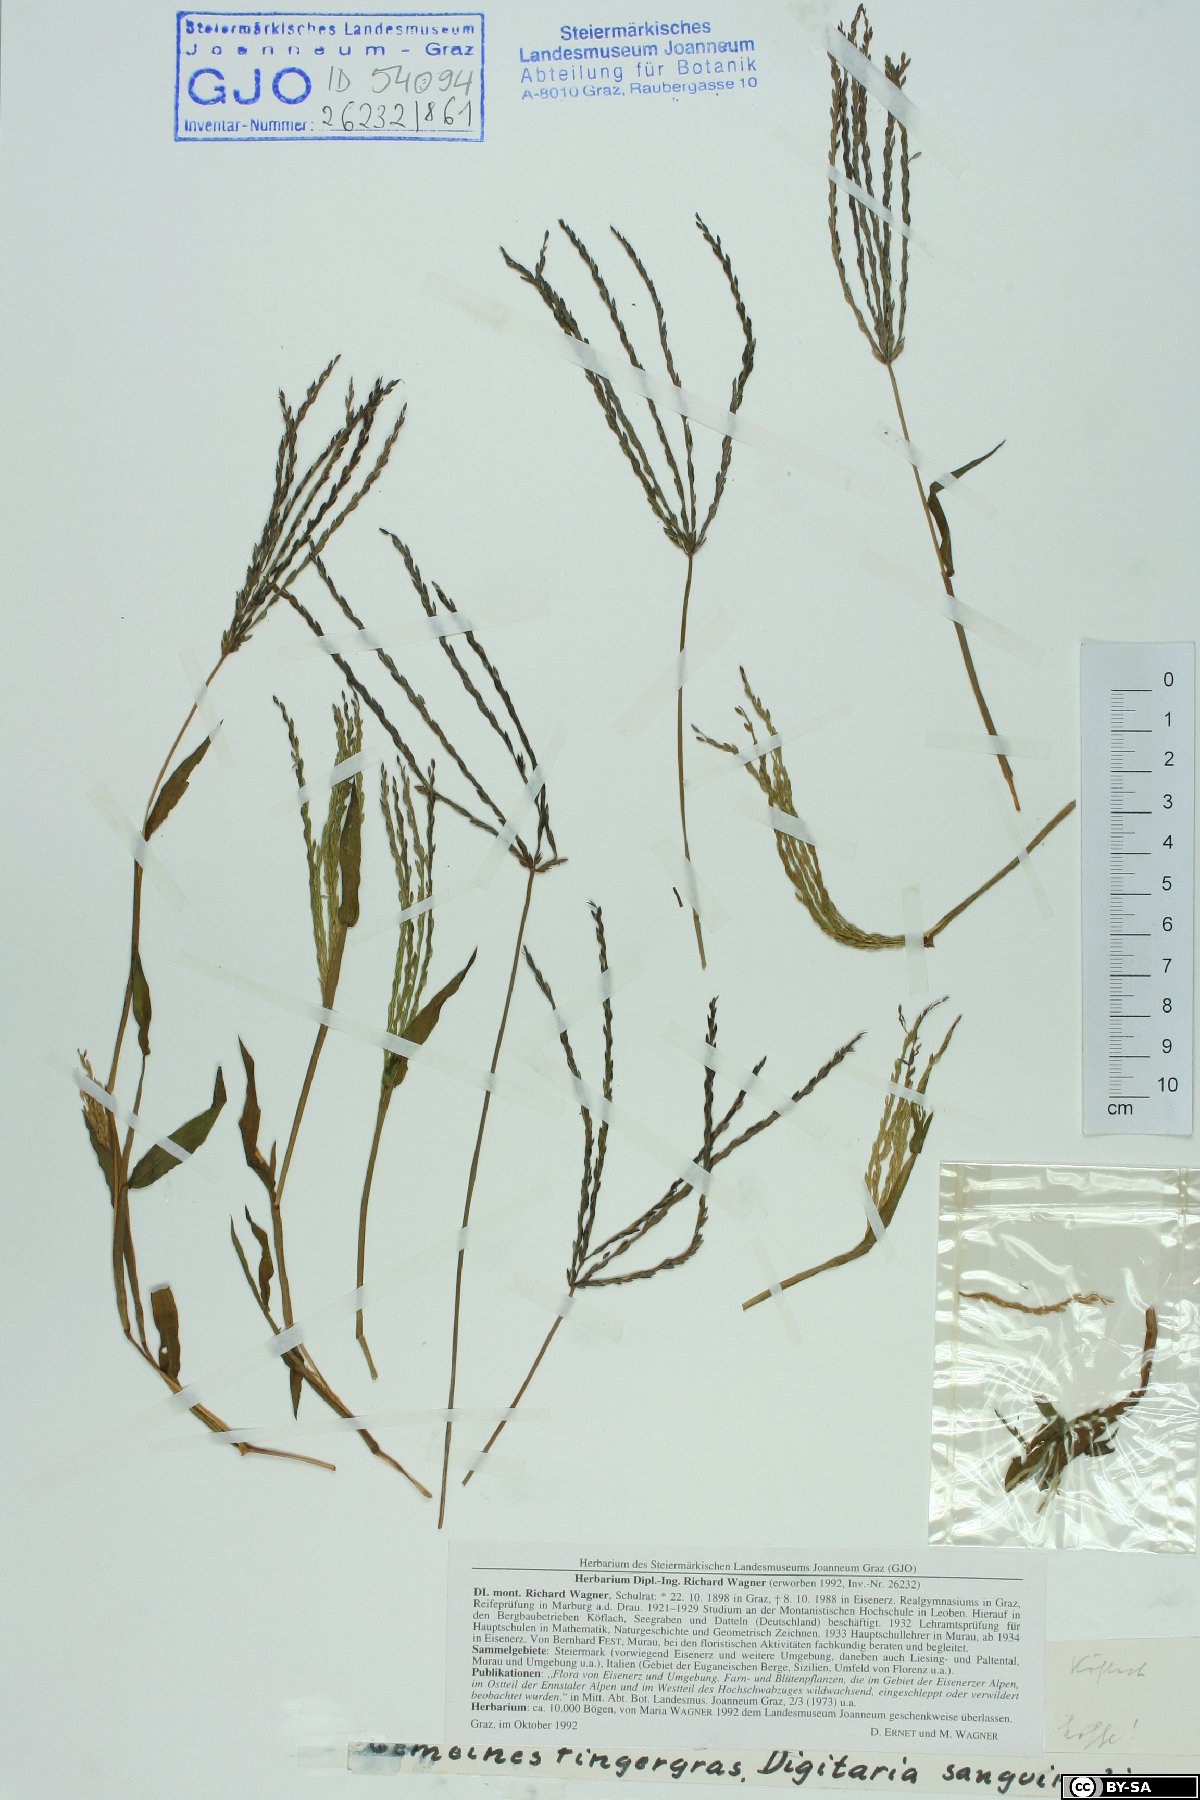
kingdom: Plantae
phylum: Tracheophyta
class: Liliopsida
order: Poales
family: Poaceae
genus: Digitaria
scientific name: Digitaria sanguinalis
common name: Hairy crabgrass
